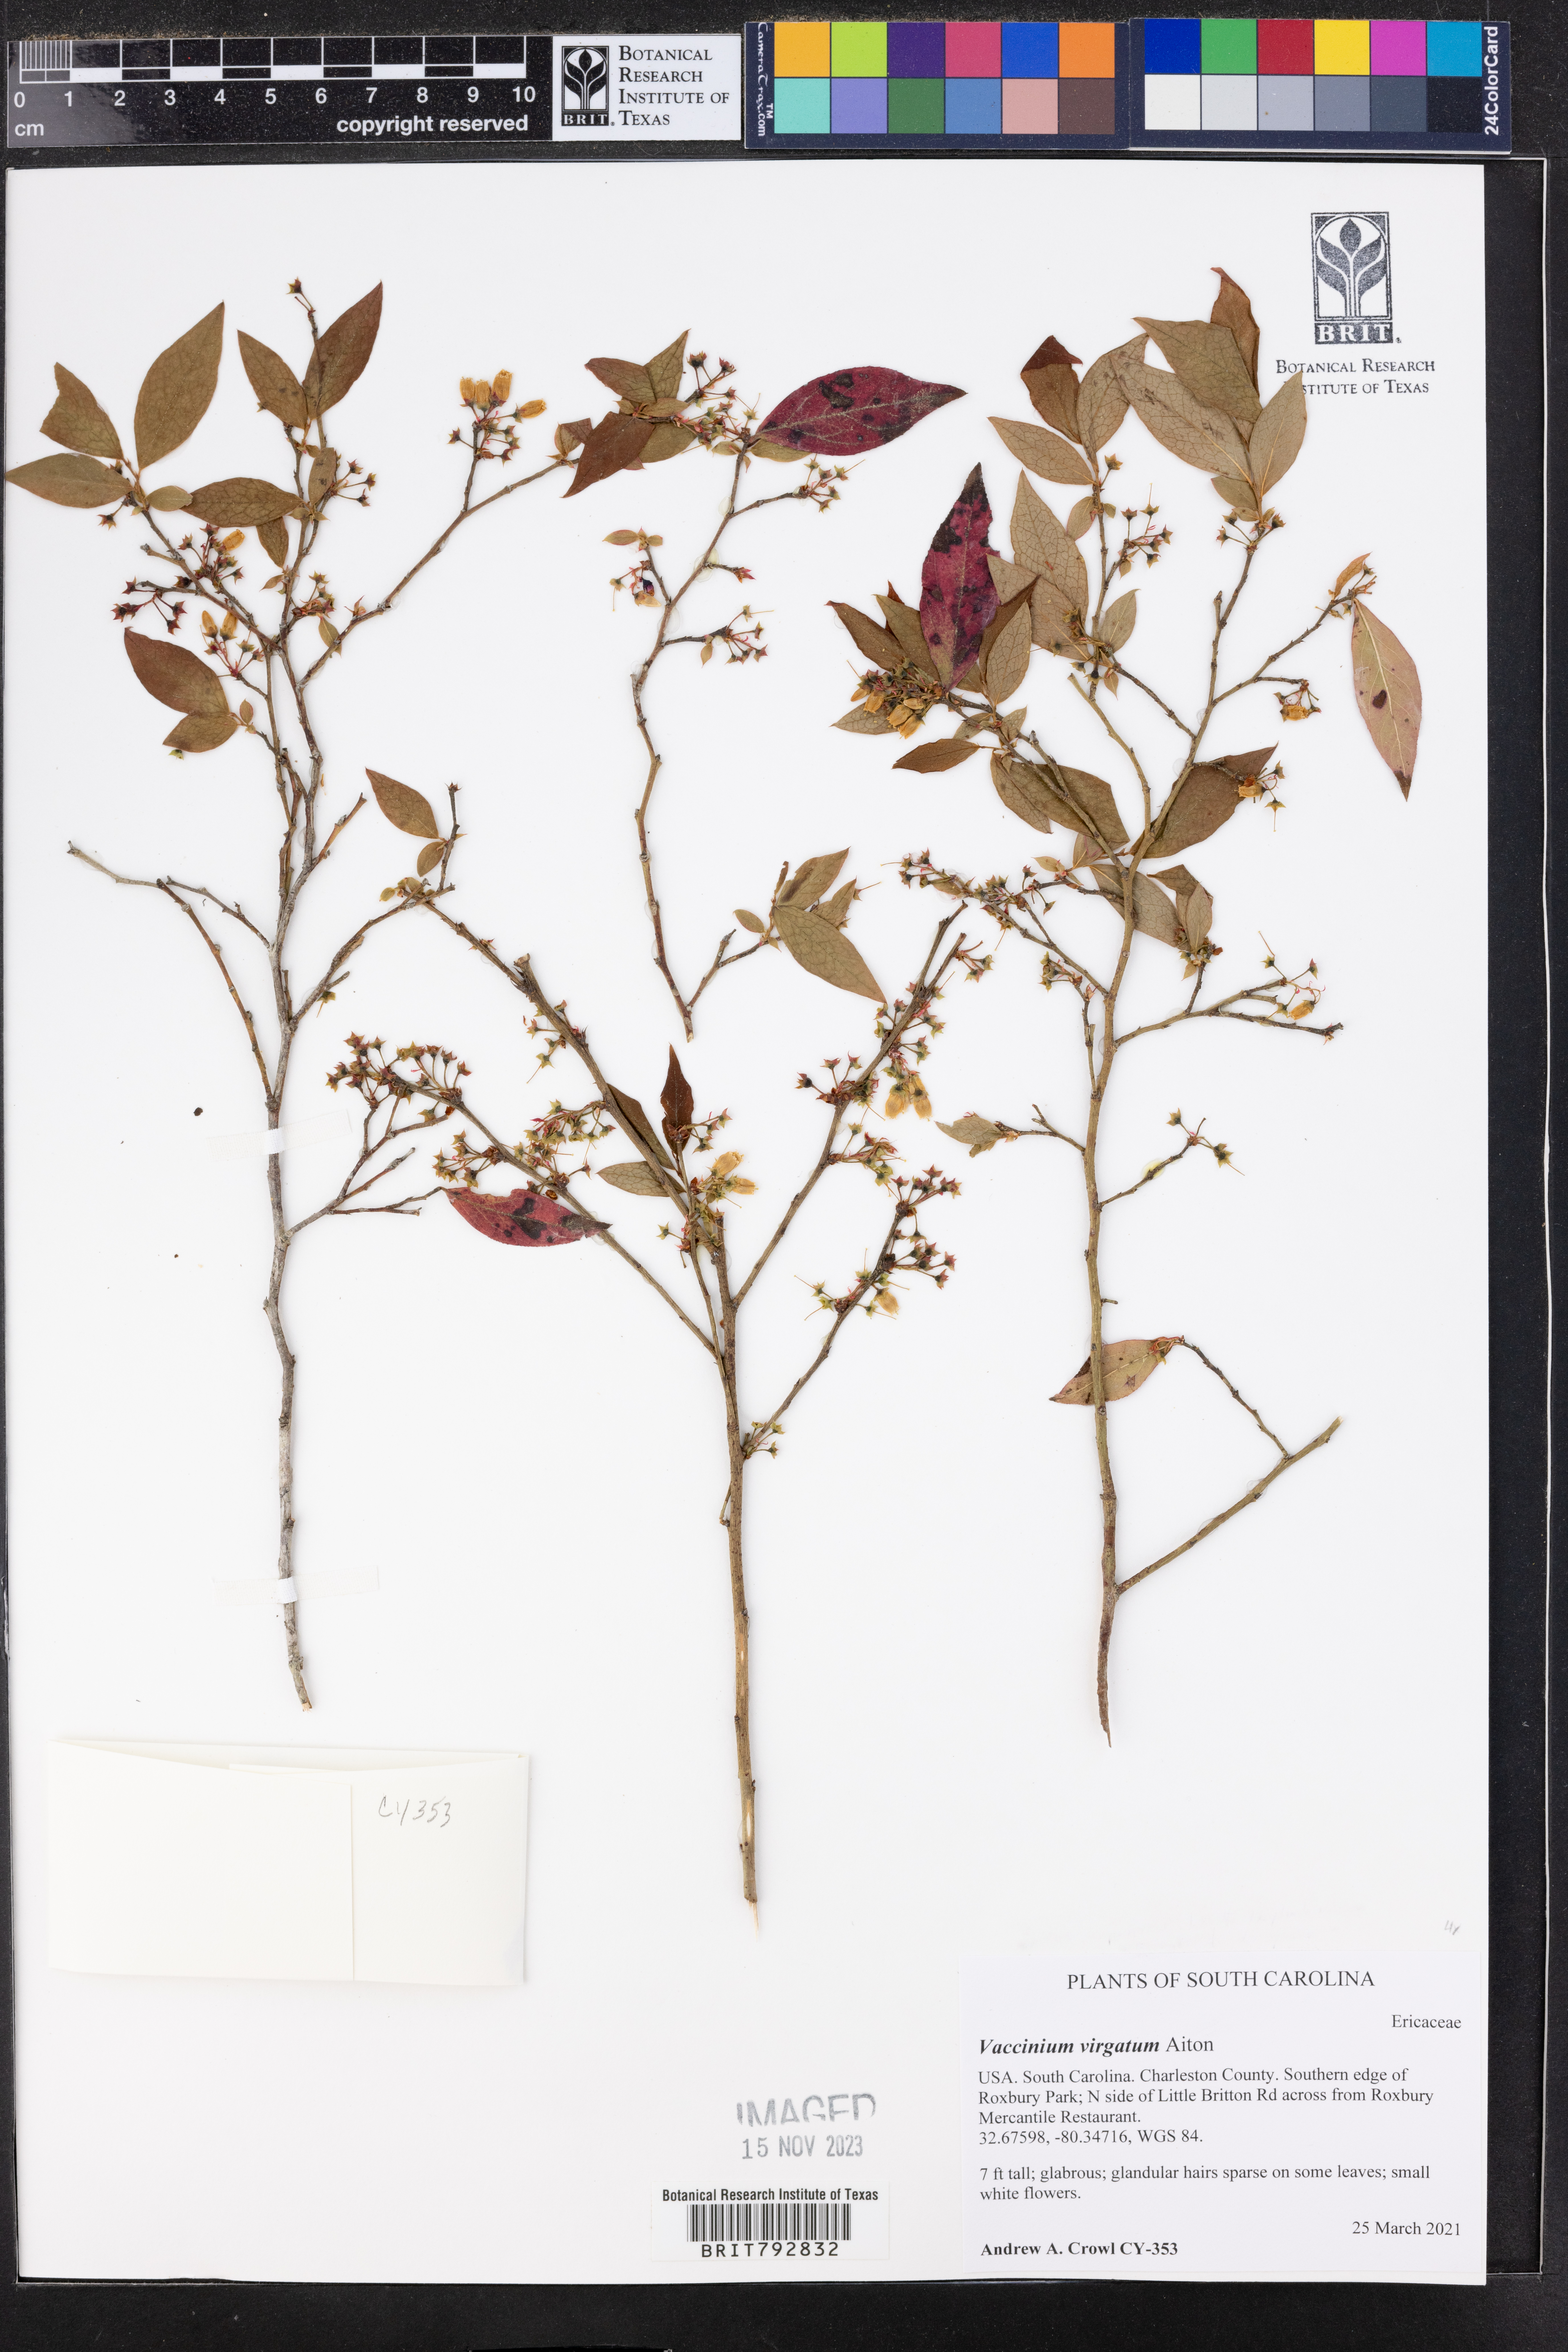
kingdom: Plantae
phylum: Tracheophyta
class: Magnoliopsida
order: Ericales
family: Ericaceae
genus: Vaccinium
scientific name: Vaccinium corymbosum
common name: Blueberry
